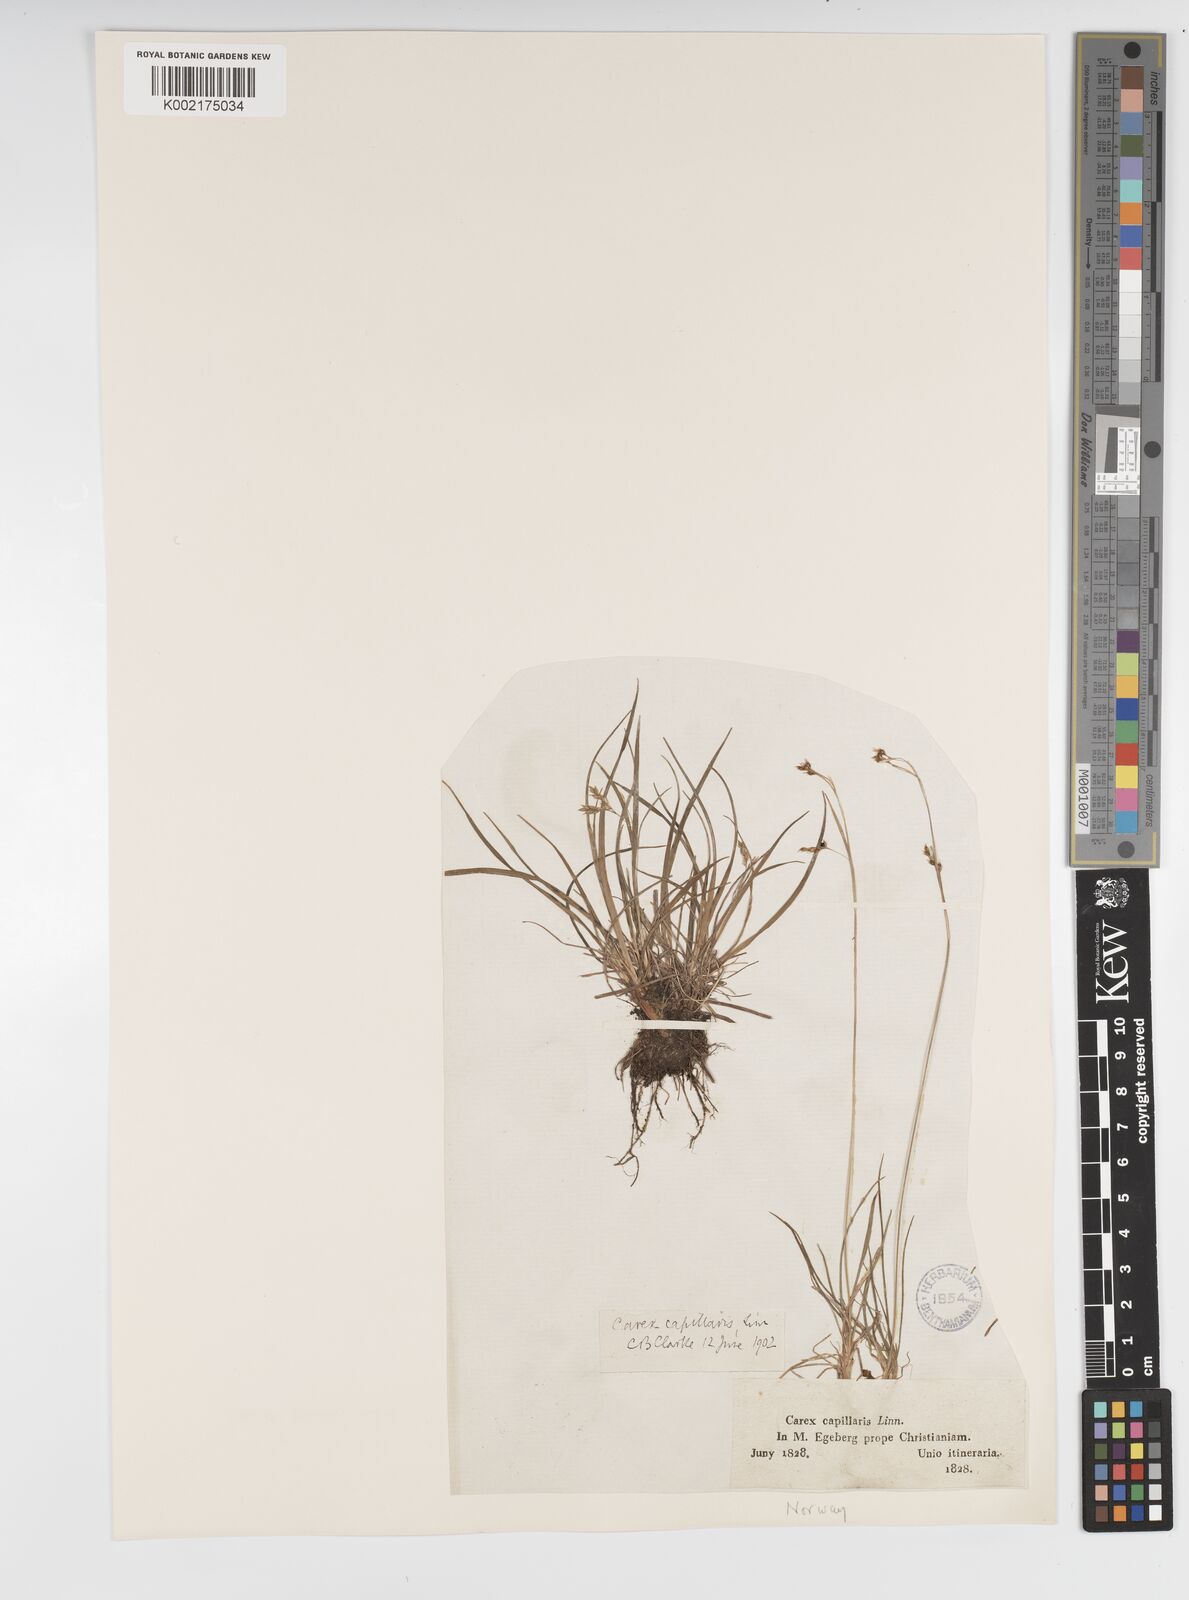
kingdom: Plantae
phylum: Tracheophyta
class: Liliopsida
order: Poales
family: Cyperaceae
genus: Carex
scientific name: Carex capillaris
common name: Hair sedge
